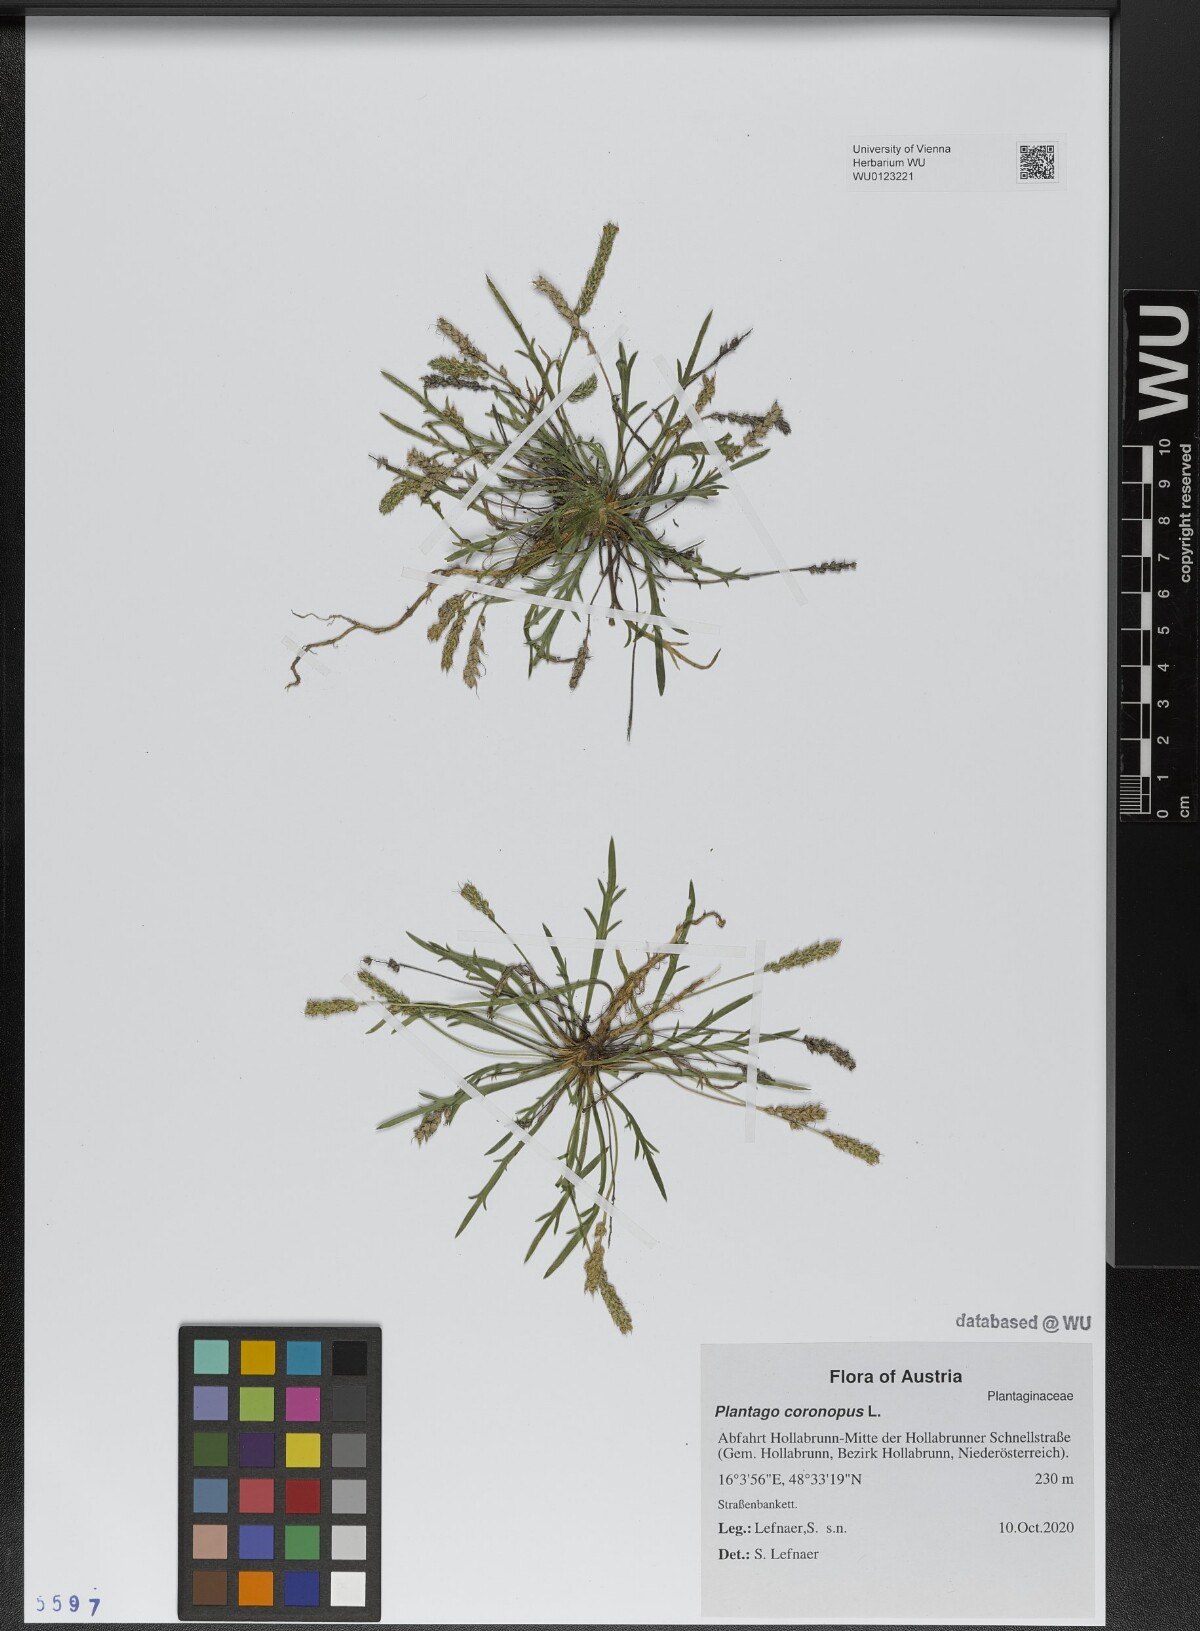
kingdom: Plantae
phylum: Tracheophyta
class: Magnoliopsida
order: Lamiales
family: Plantaginaceae
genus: Plantago
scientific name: Plantago coronopus
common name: Buck's-horn plantain
